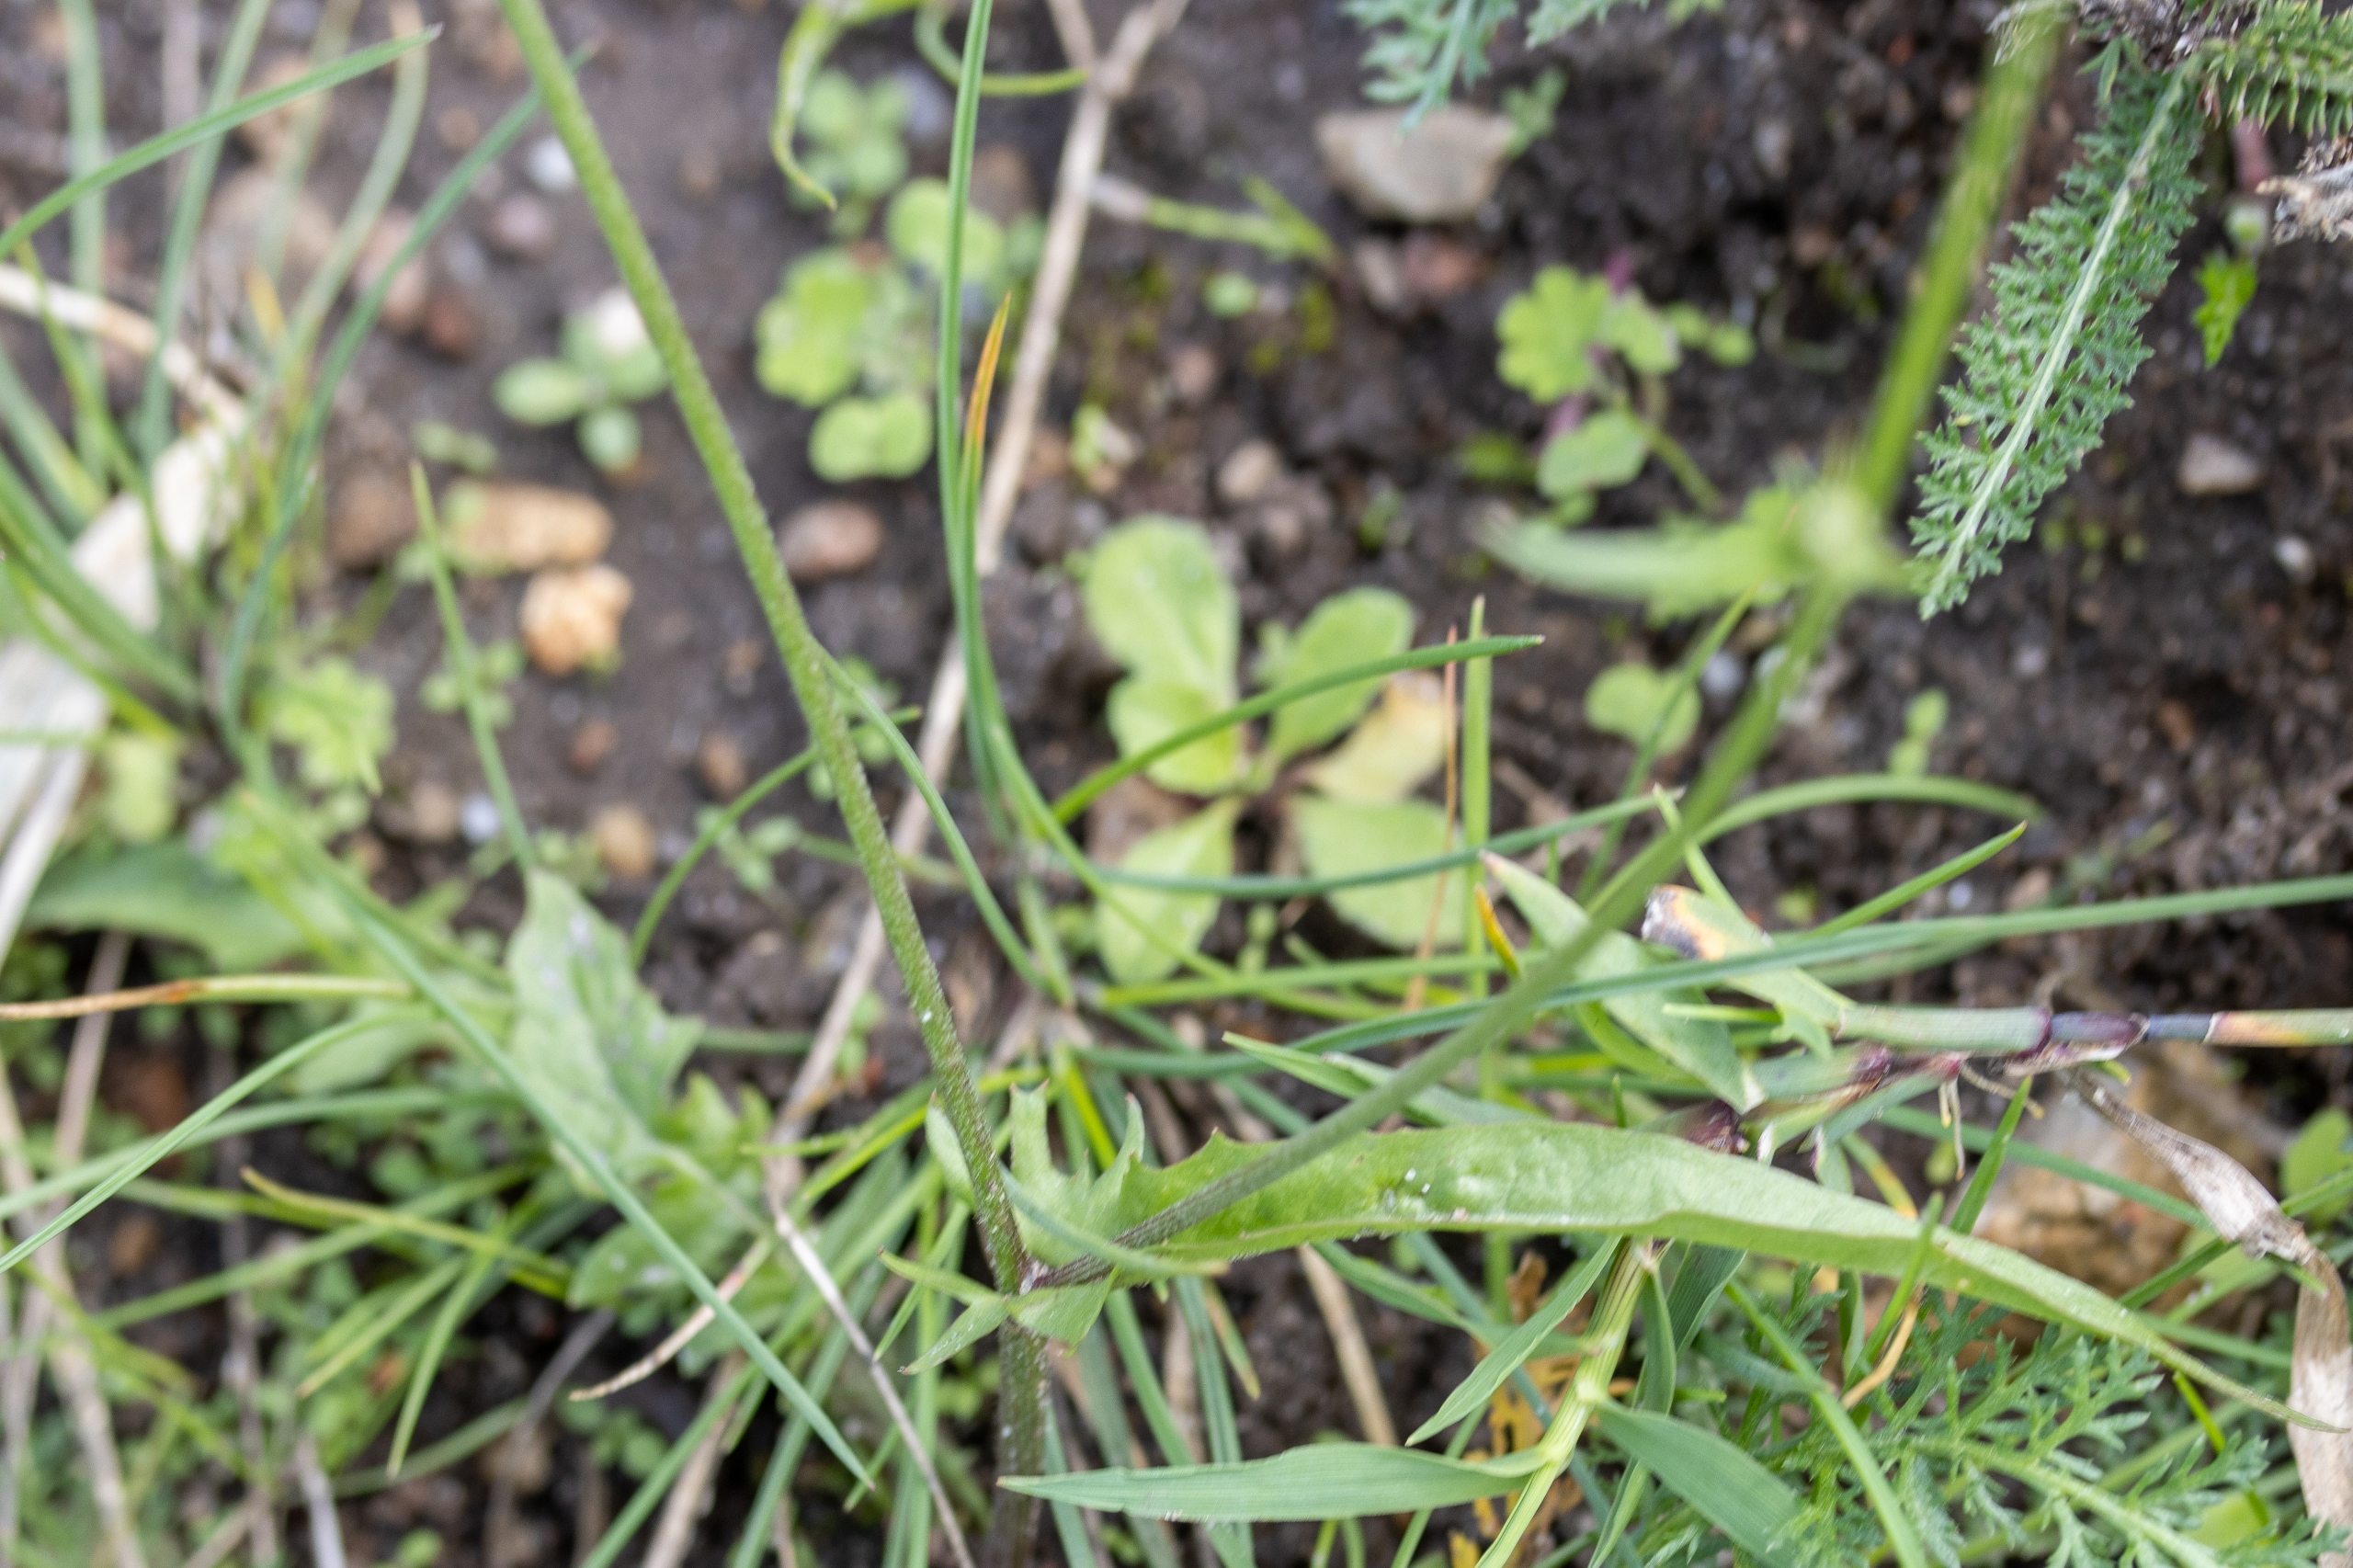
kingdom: Plantae
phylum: Tracheophyta
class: Magnoliopsida
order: Asterales
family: Asteraceae
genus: Crepis
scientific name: Crepis capillaris
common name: Grøn høgeskæg
